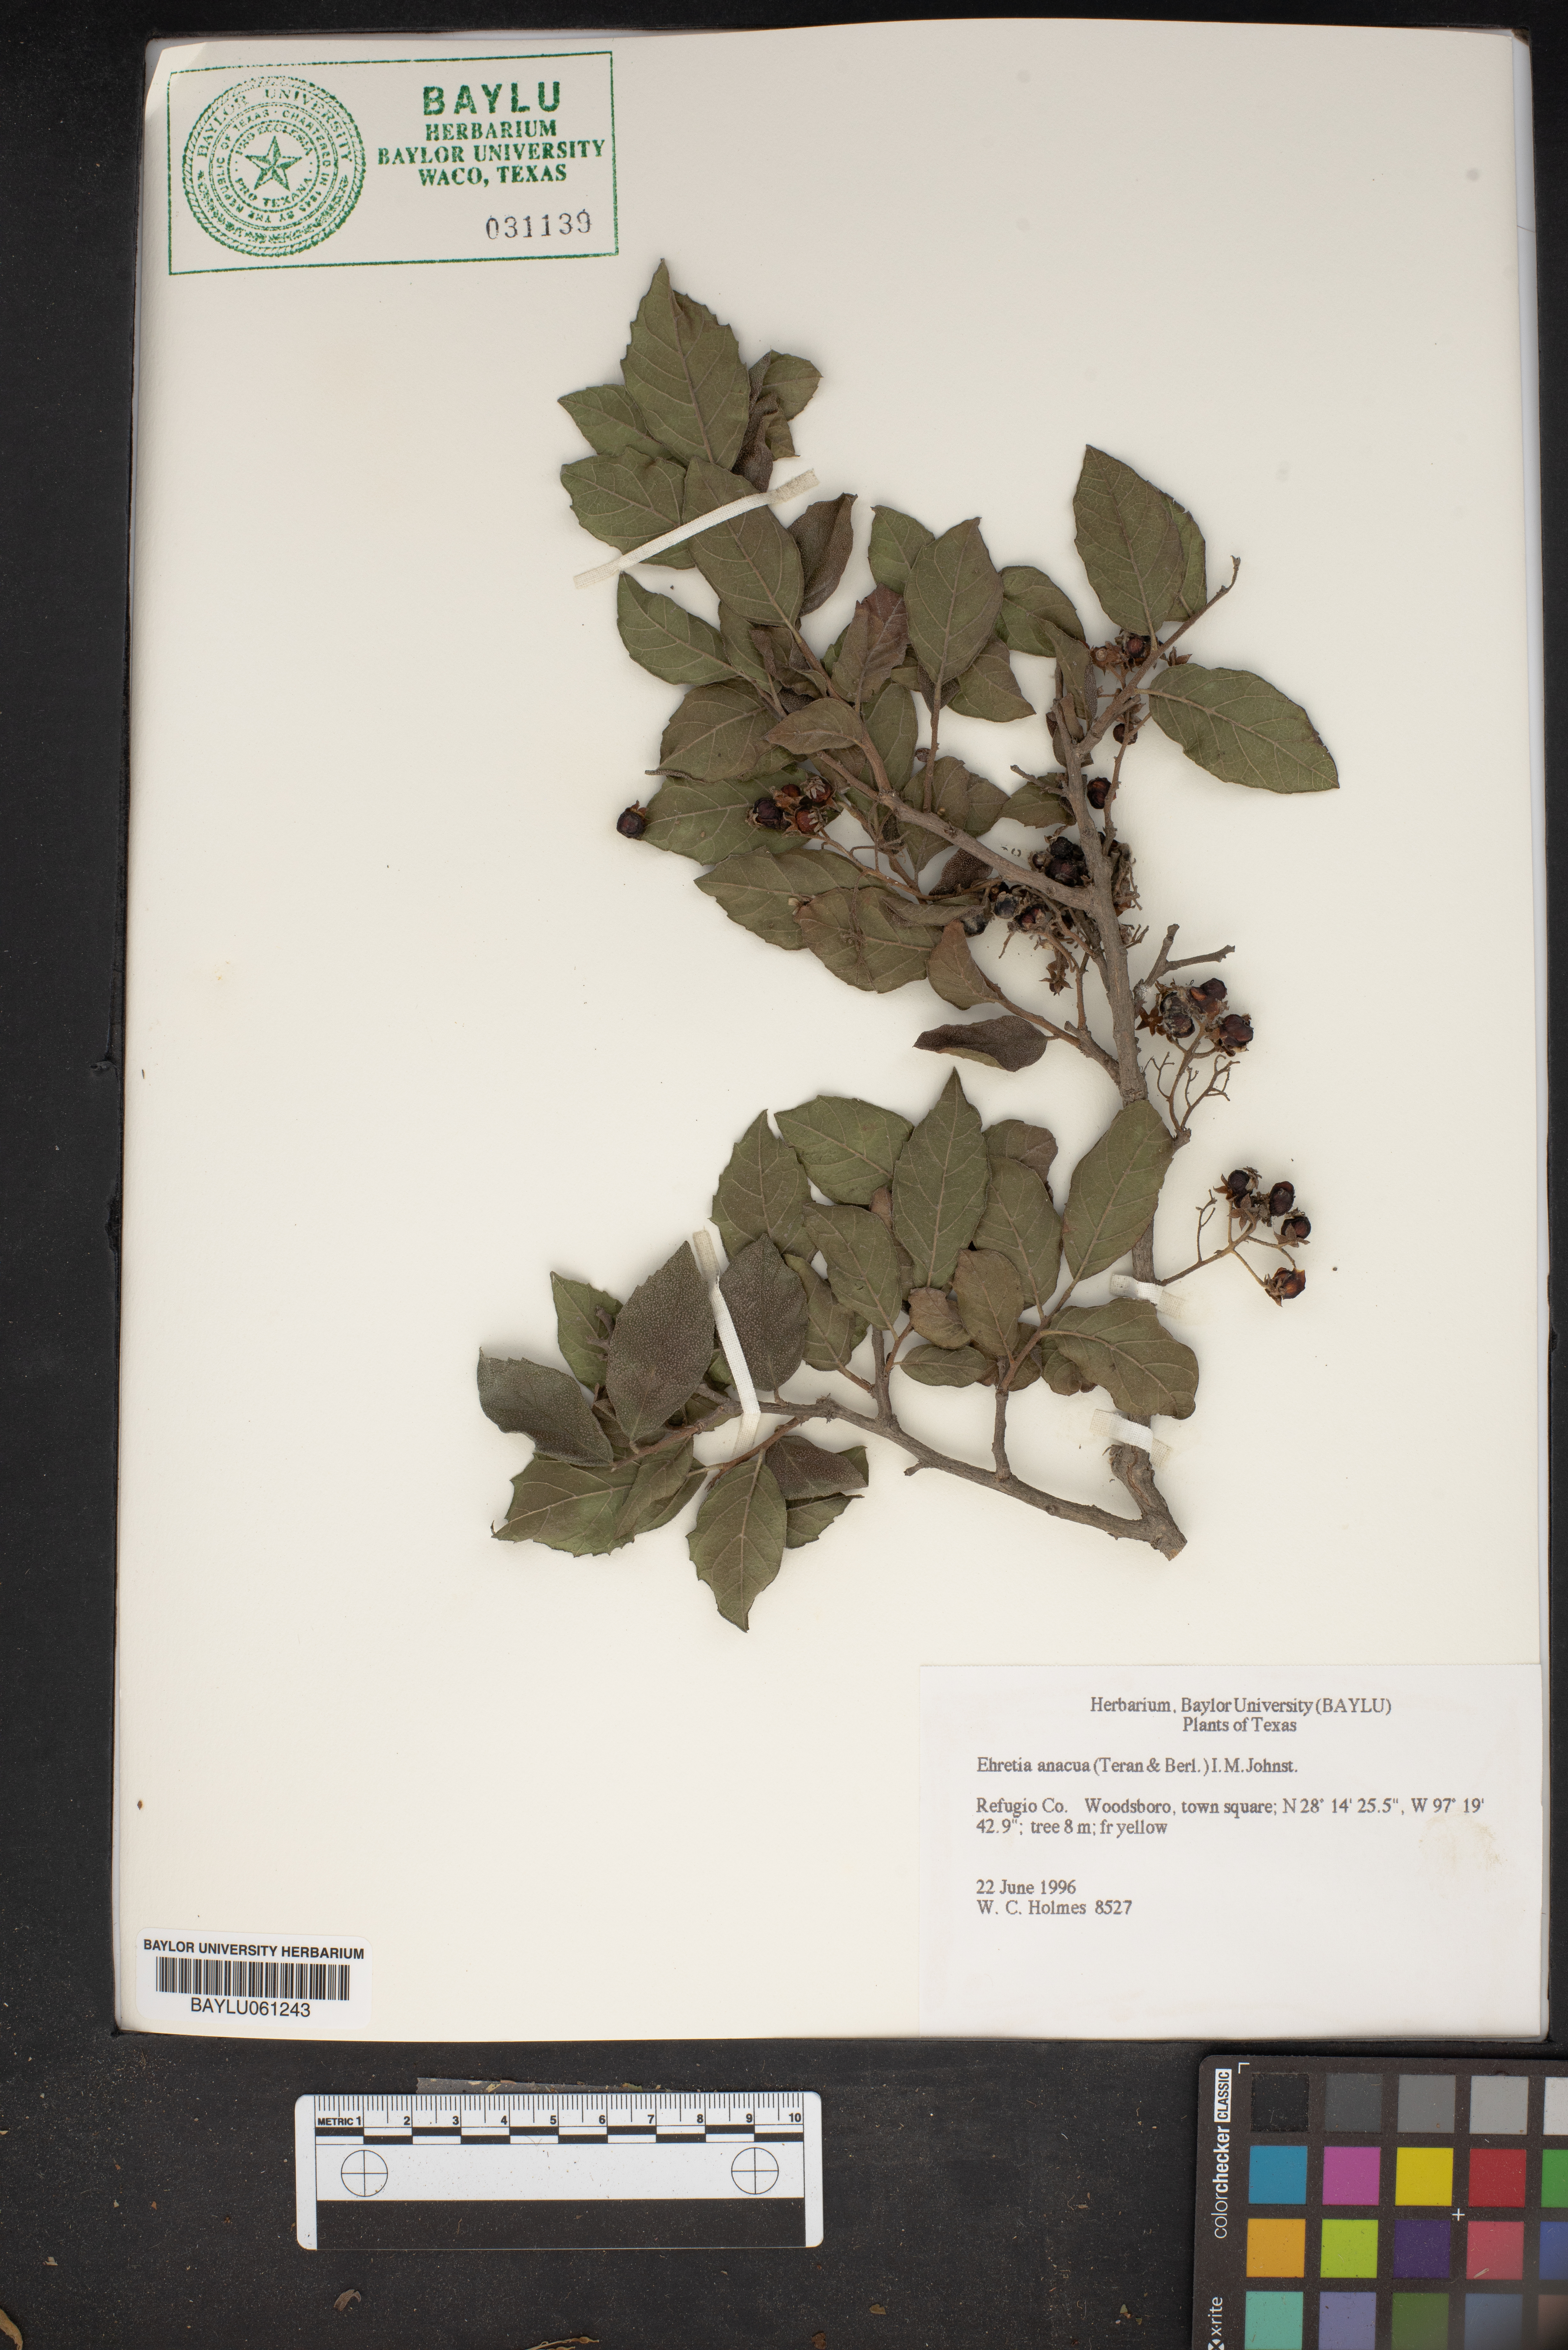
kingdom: Plantae
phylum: Tracheophyta
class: Magnoliopsida
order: Boraginales
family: Ehretiaceae
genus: Ehretia
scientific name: Ehretia anacua
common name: Sugarberry
